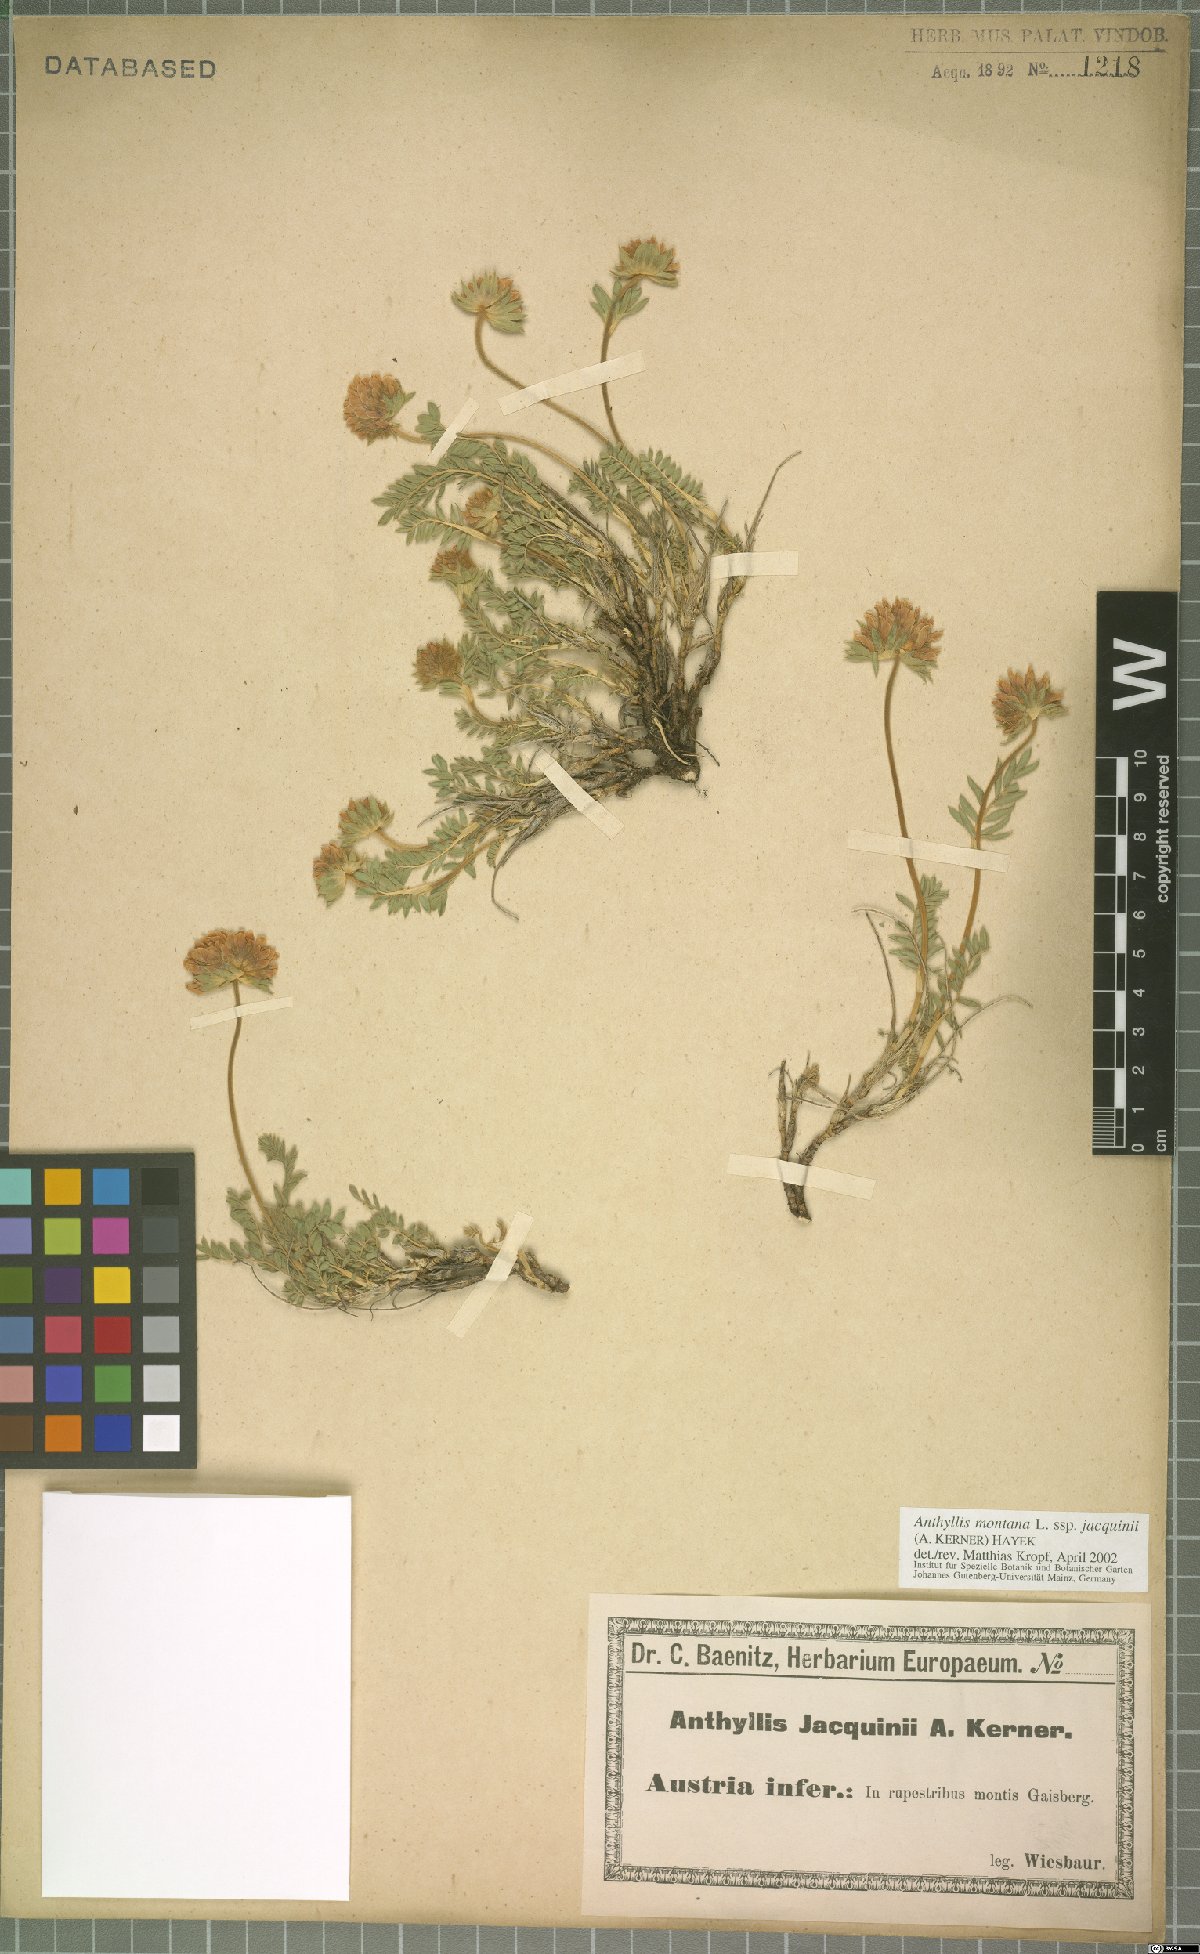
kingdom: Plantae
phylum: Tracheophyta
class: Magnoliopsida
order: Fabales
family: Fabaceae
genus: Anthyllis
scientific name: Anthyllis montana
